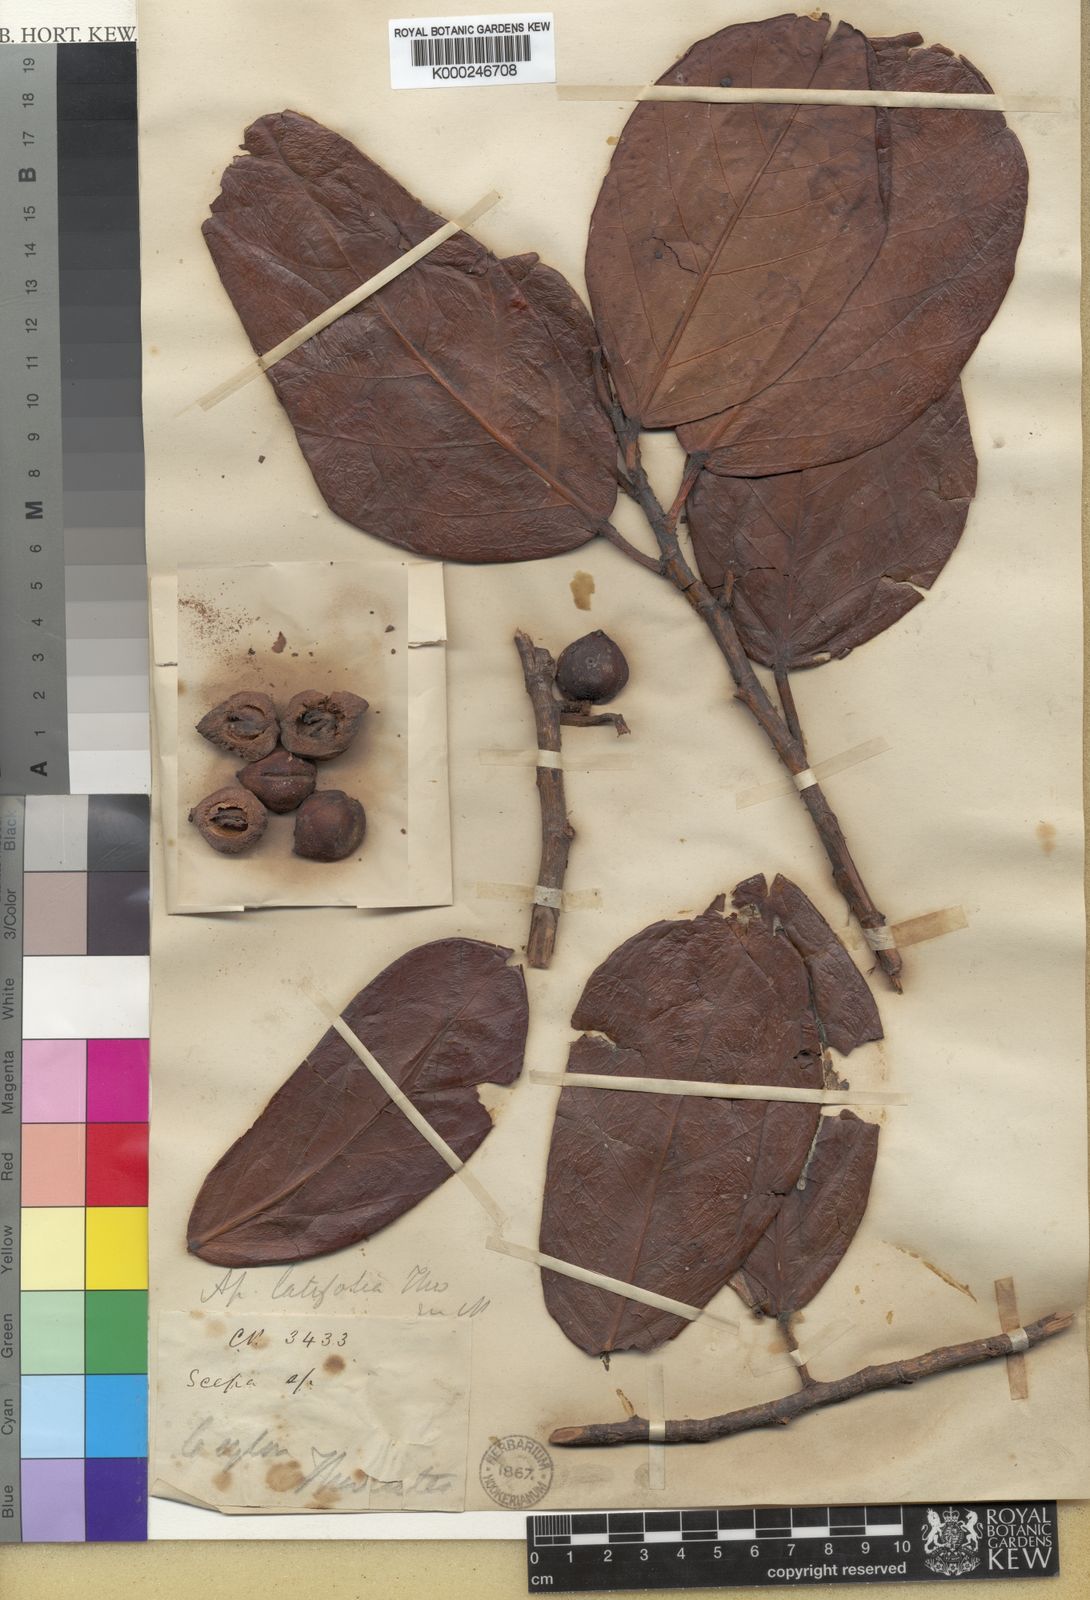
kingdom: Plantae
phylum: Tracheophyta
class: Magnoliopsida
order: Malpighiales
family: Phyllanthaceae
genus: Aporosa
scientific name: Aporosa latifolia
